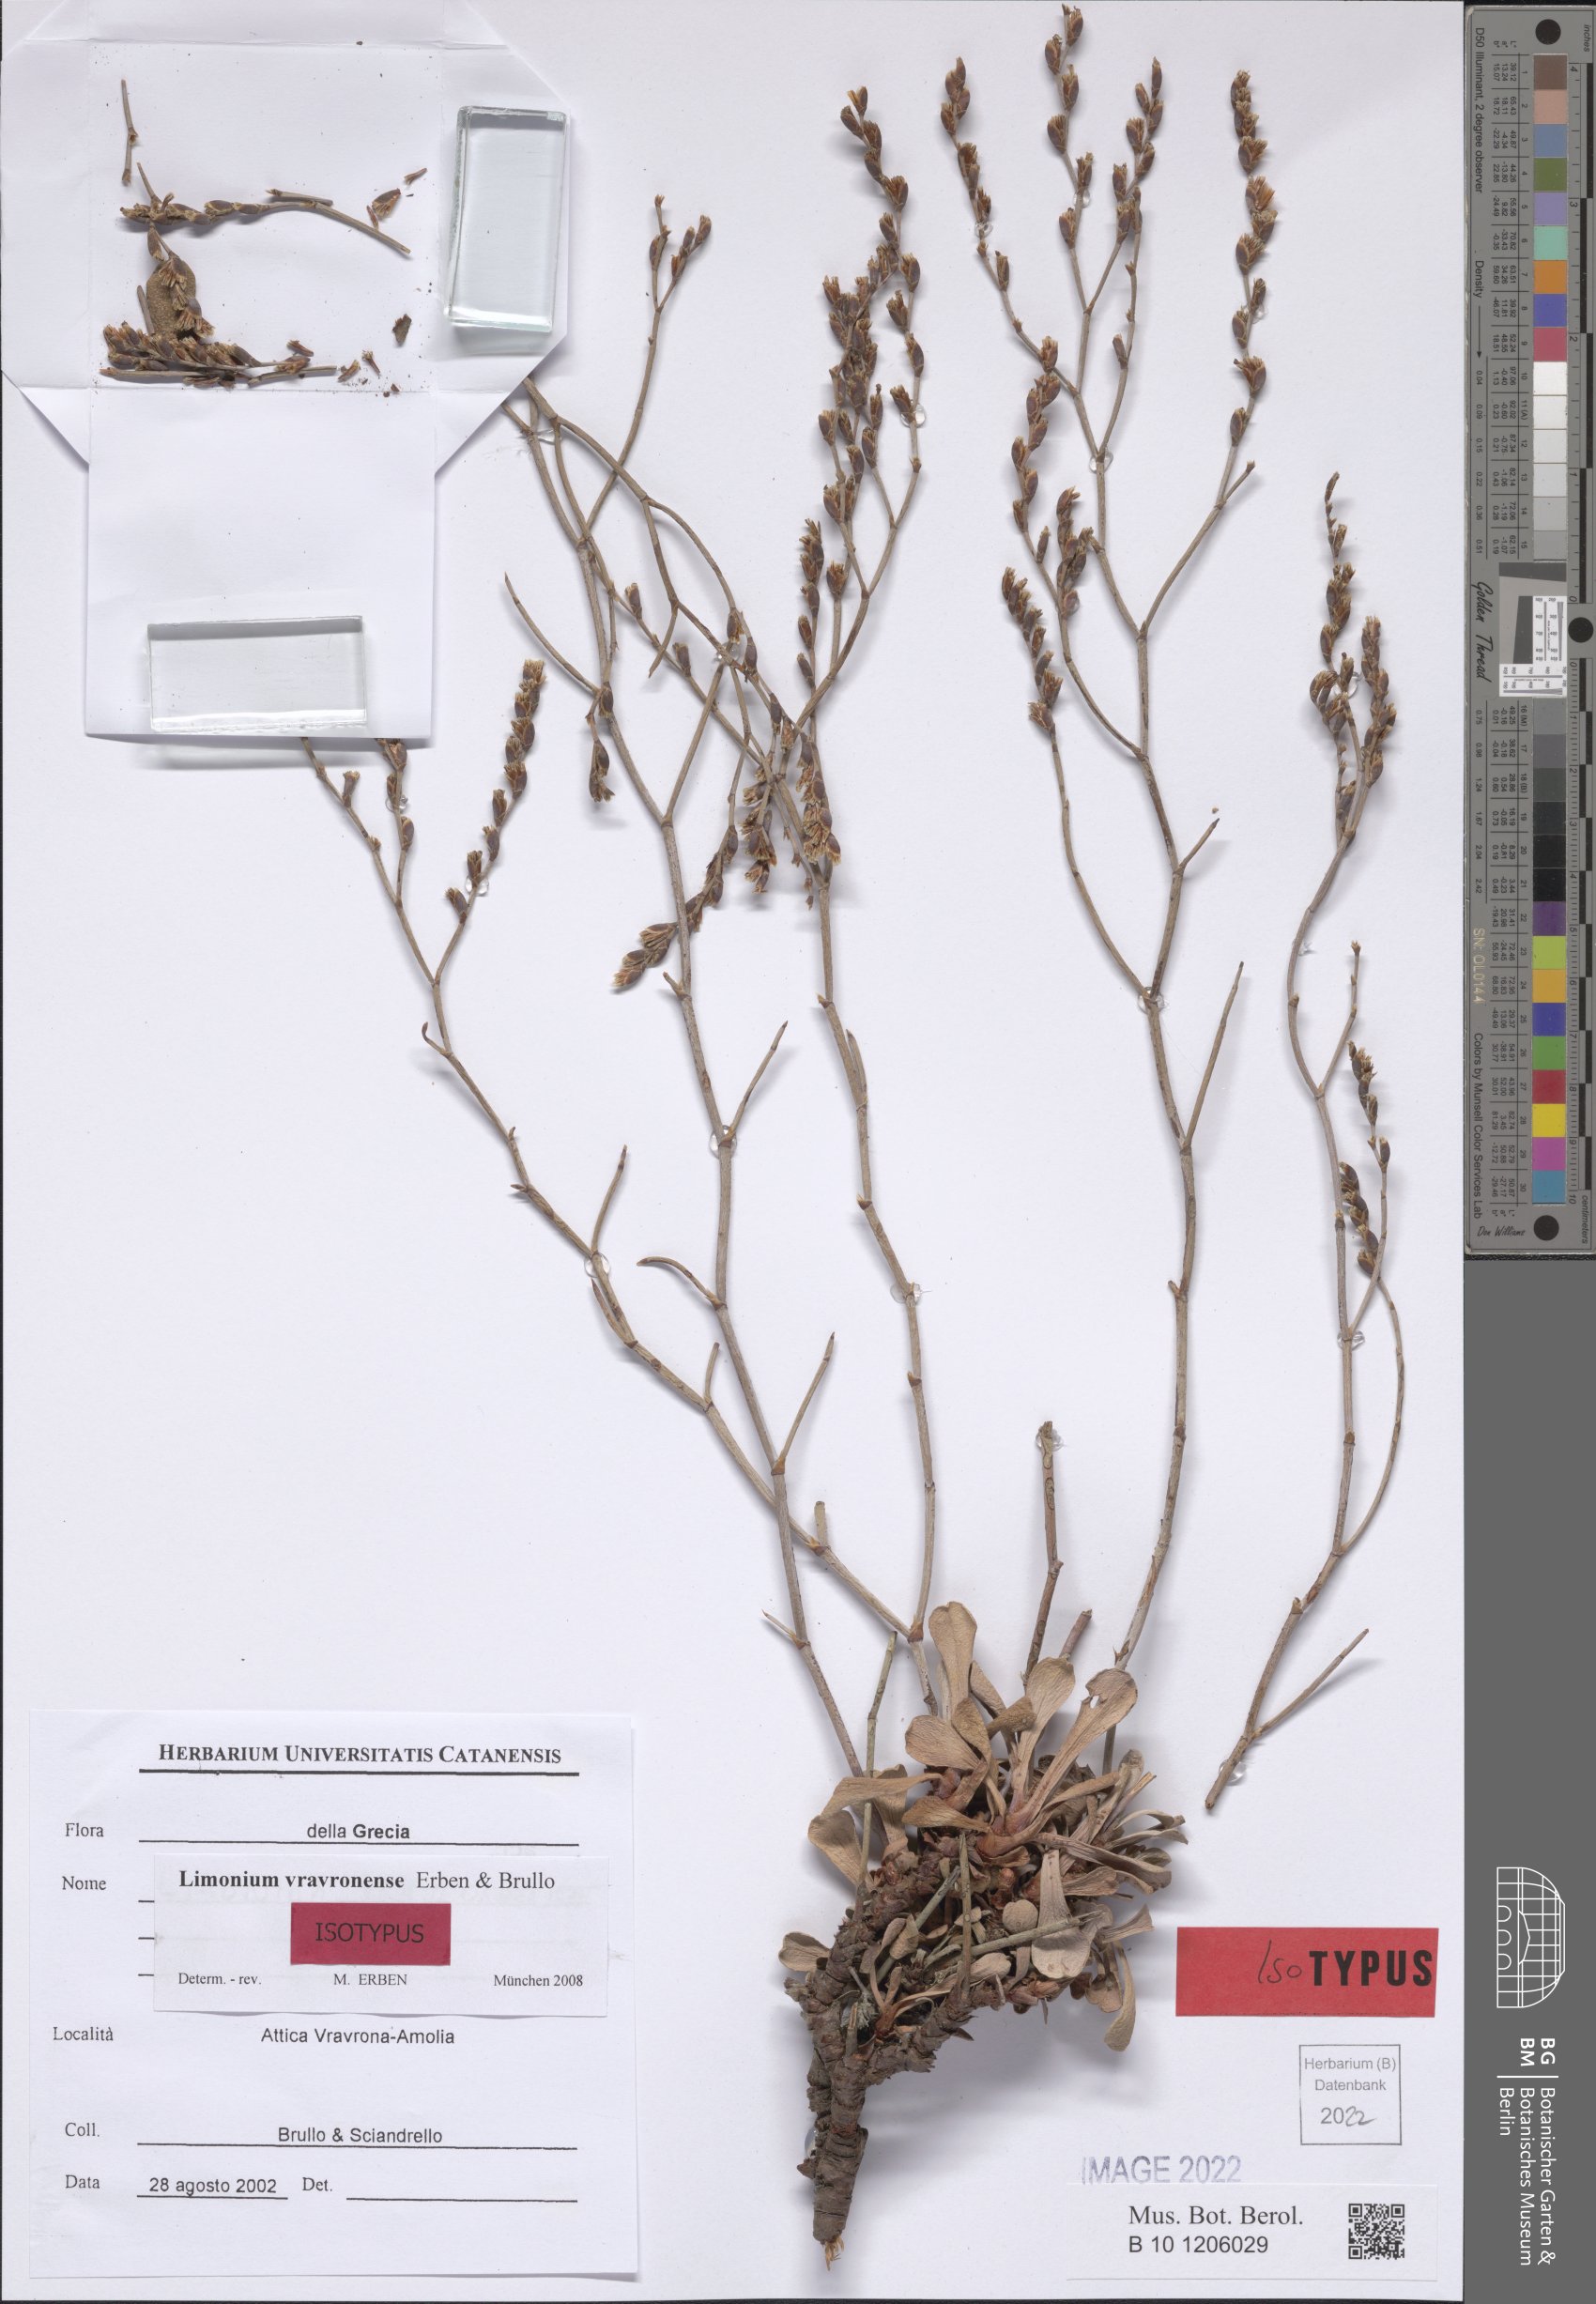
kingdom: Plantae
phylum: Tracheophyta
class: Magnoliopsida
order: Caryophyllales
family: Plumbaginaceae
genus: Limonium
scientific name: Limonium vravronense
